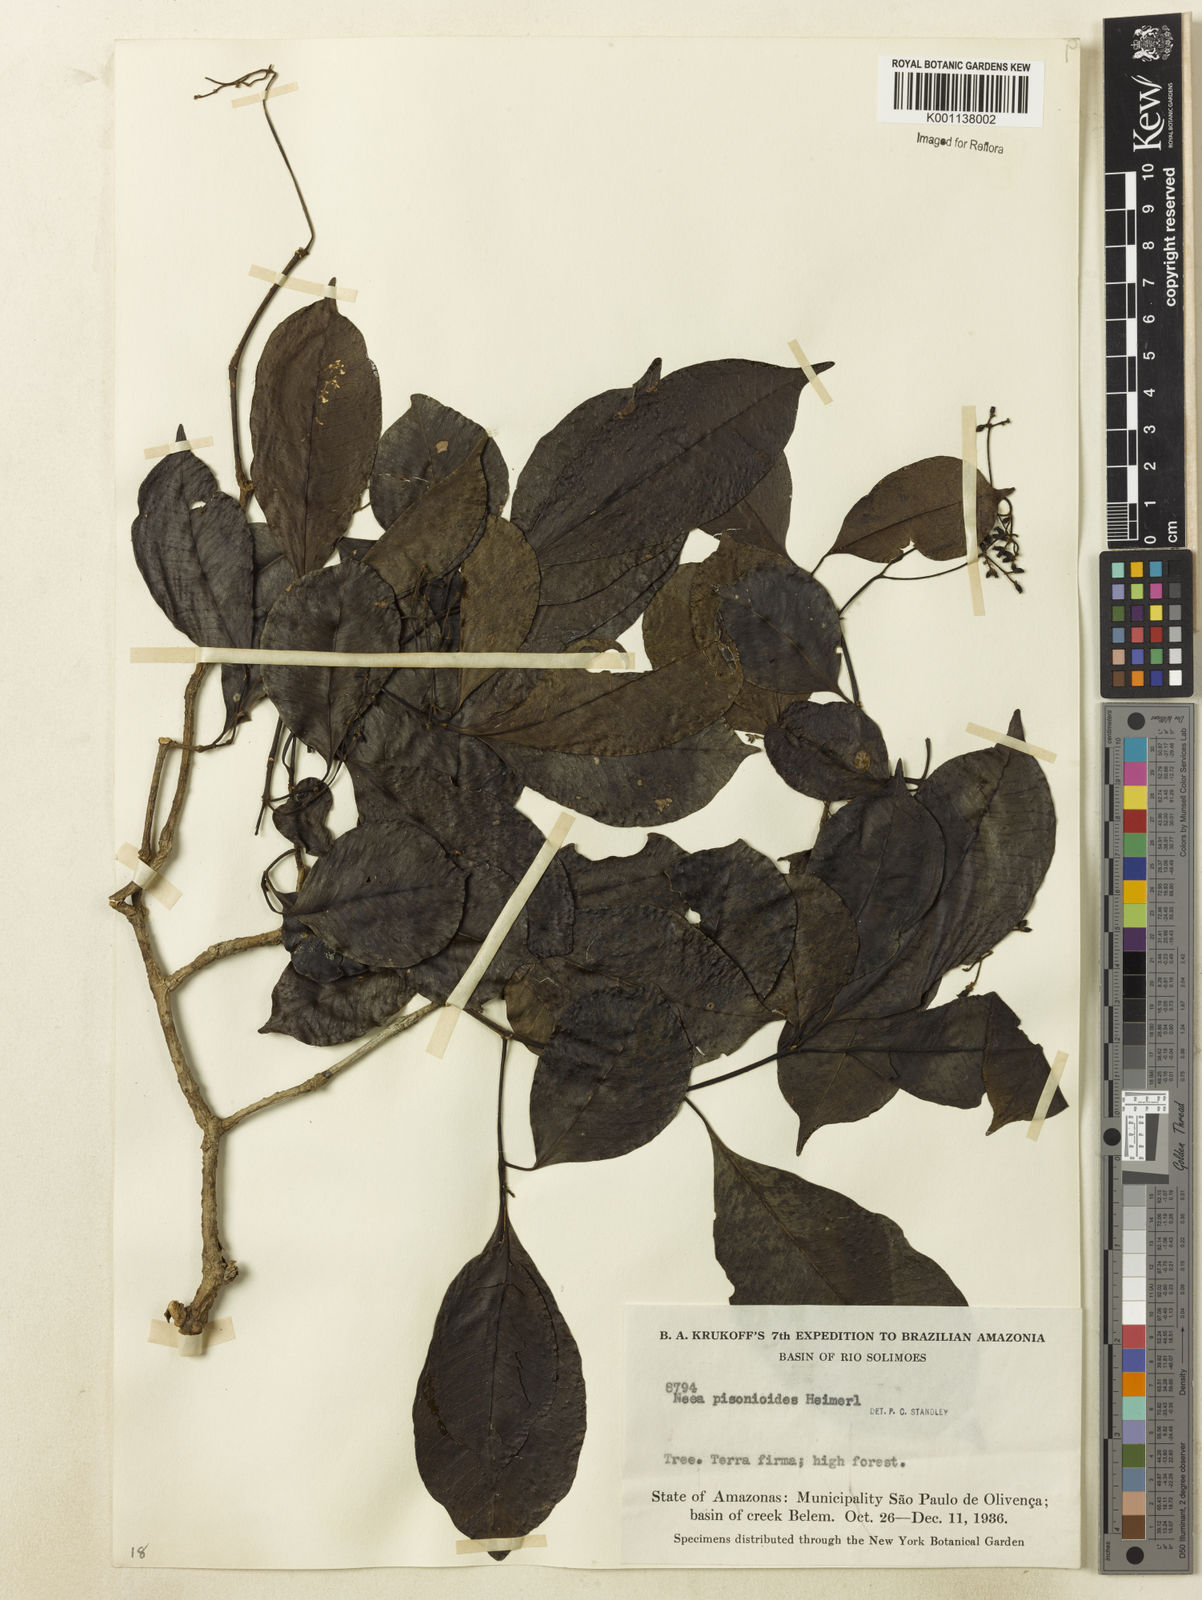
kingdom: Plantae
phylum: Tracheophyta
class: Magnoliopsida
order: Caryophyllales
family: Nyctaginaceae
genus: Neea
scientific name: Neea
